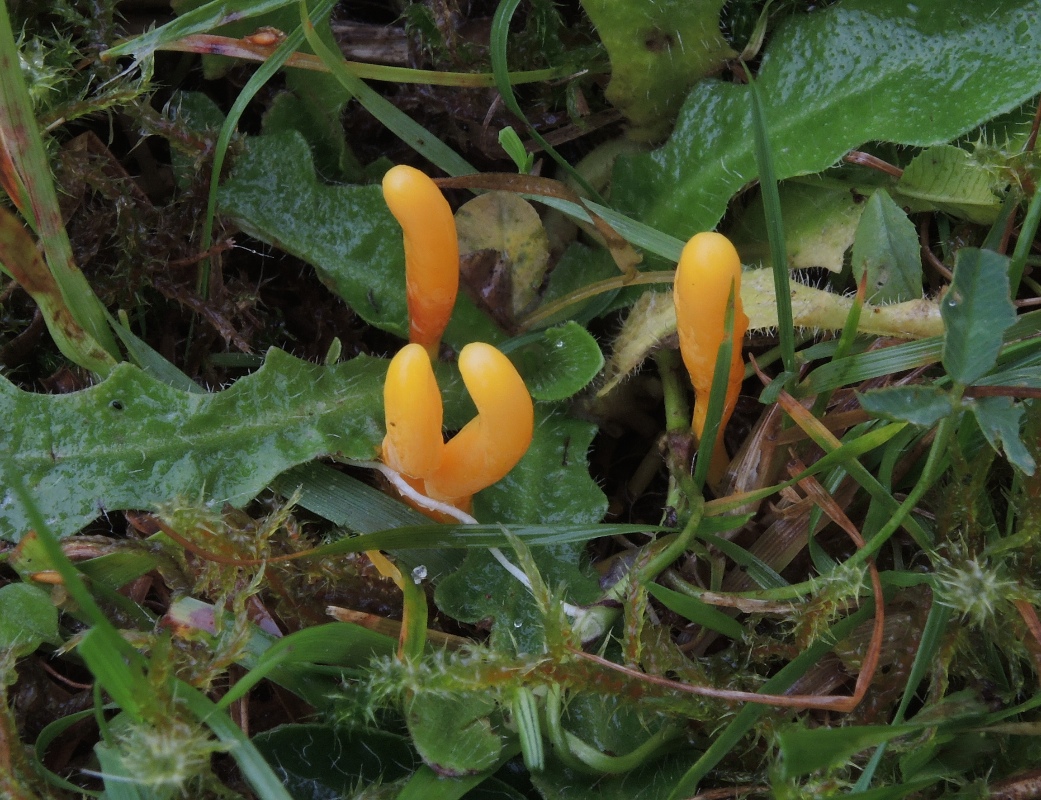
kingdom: Fungi
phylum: Basidiomycota
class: Agaricomycetes
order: Agaricales
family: Clavariaceae
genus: Clavulinopsis
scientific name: Clavulinopsis helvola
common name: orangegul køllesvamp
